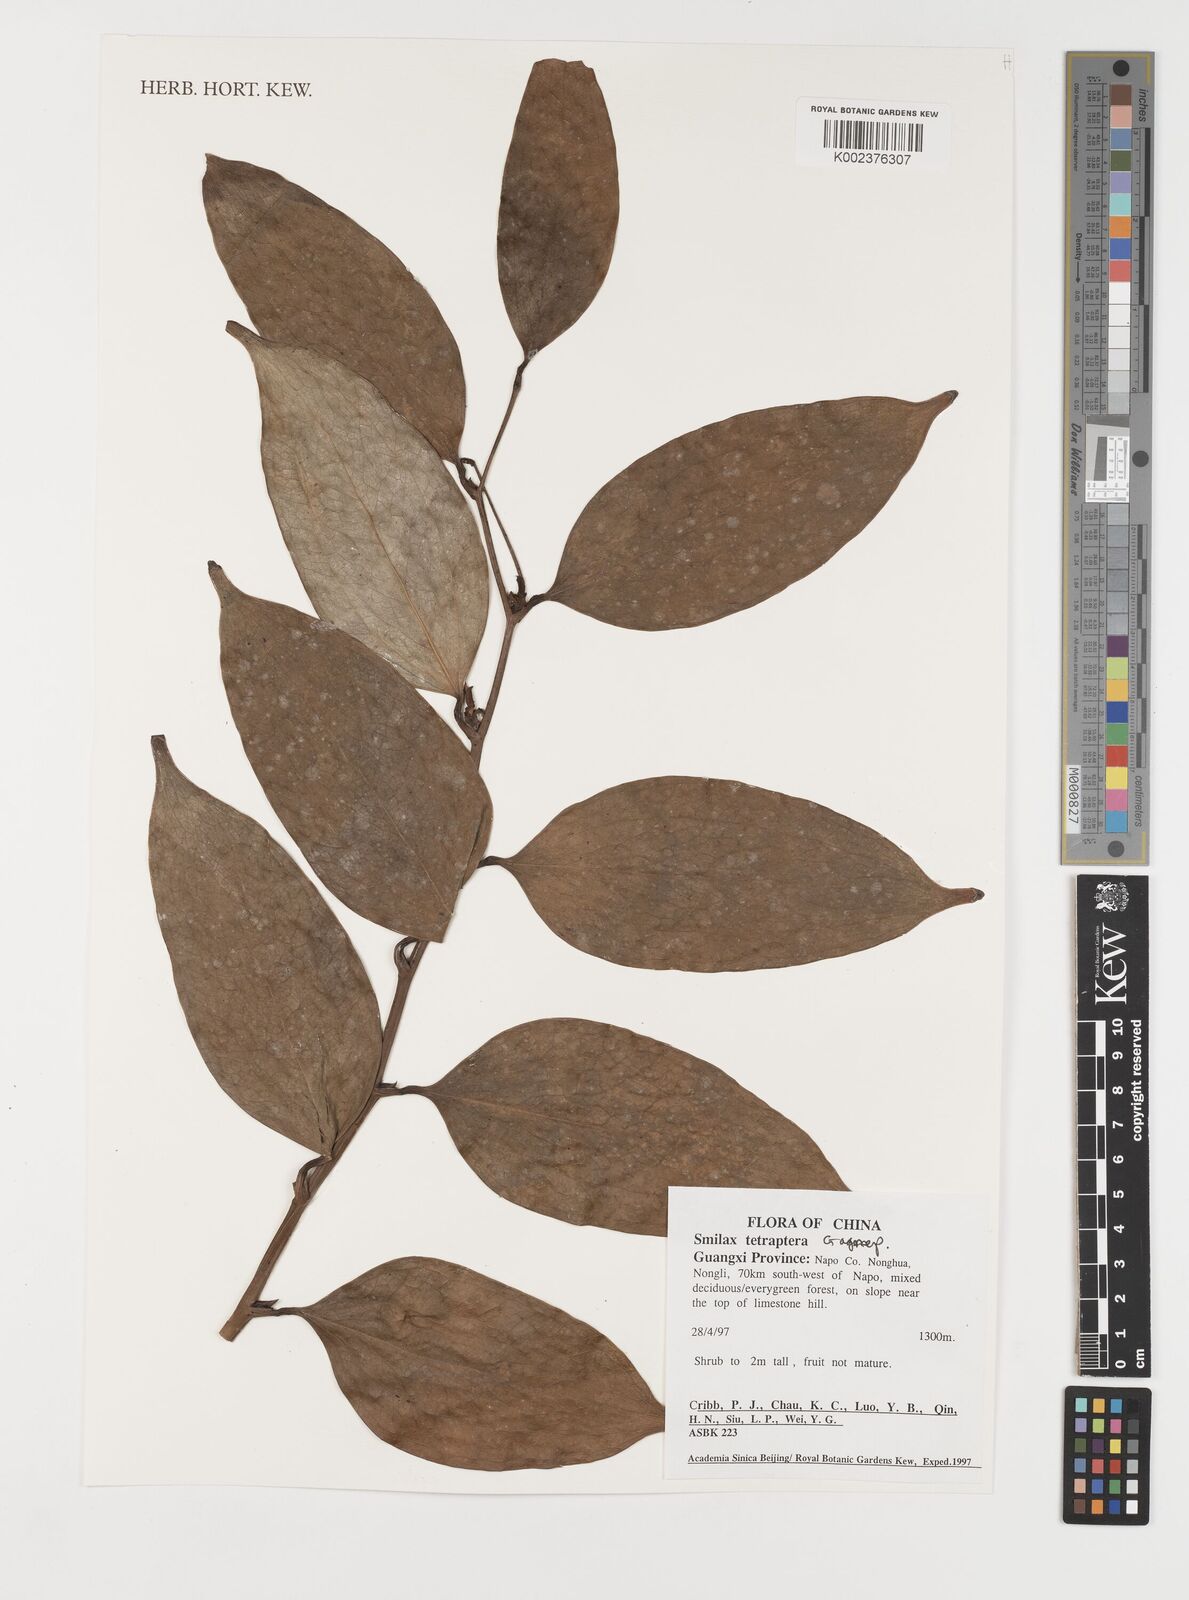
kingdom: Plantae
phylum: Tracheophyta
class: Liliopsida
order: Liliales
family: Smilacaceae
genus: Smilax
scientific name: Smilax tetraptera
